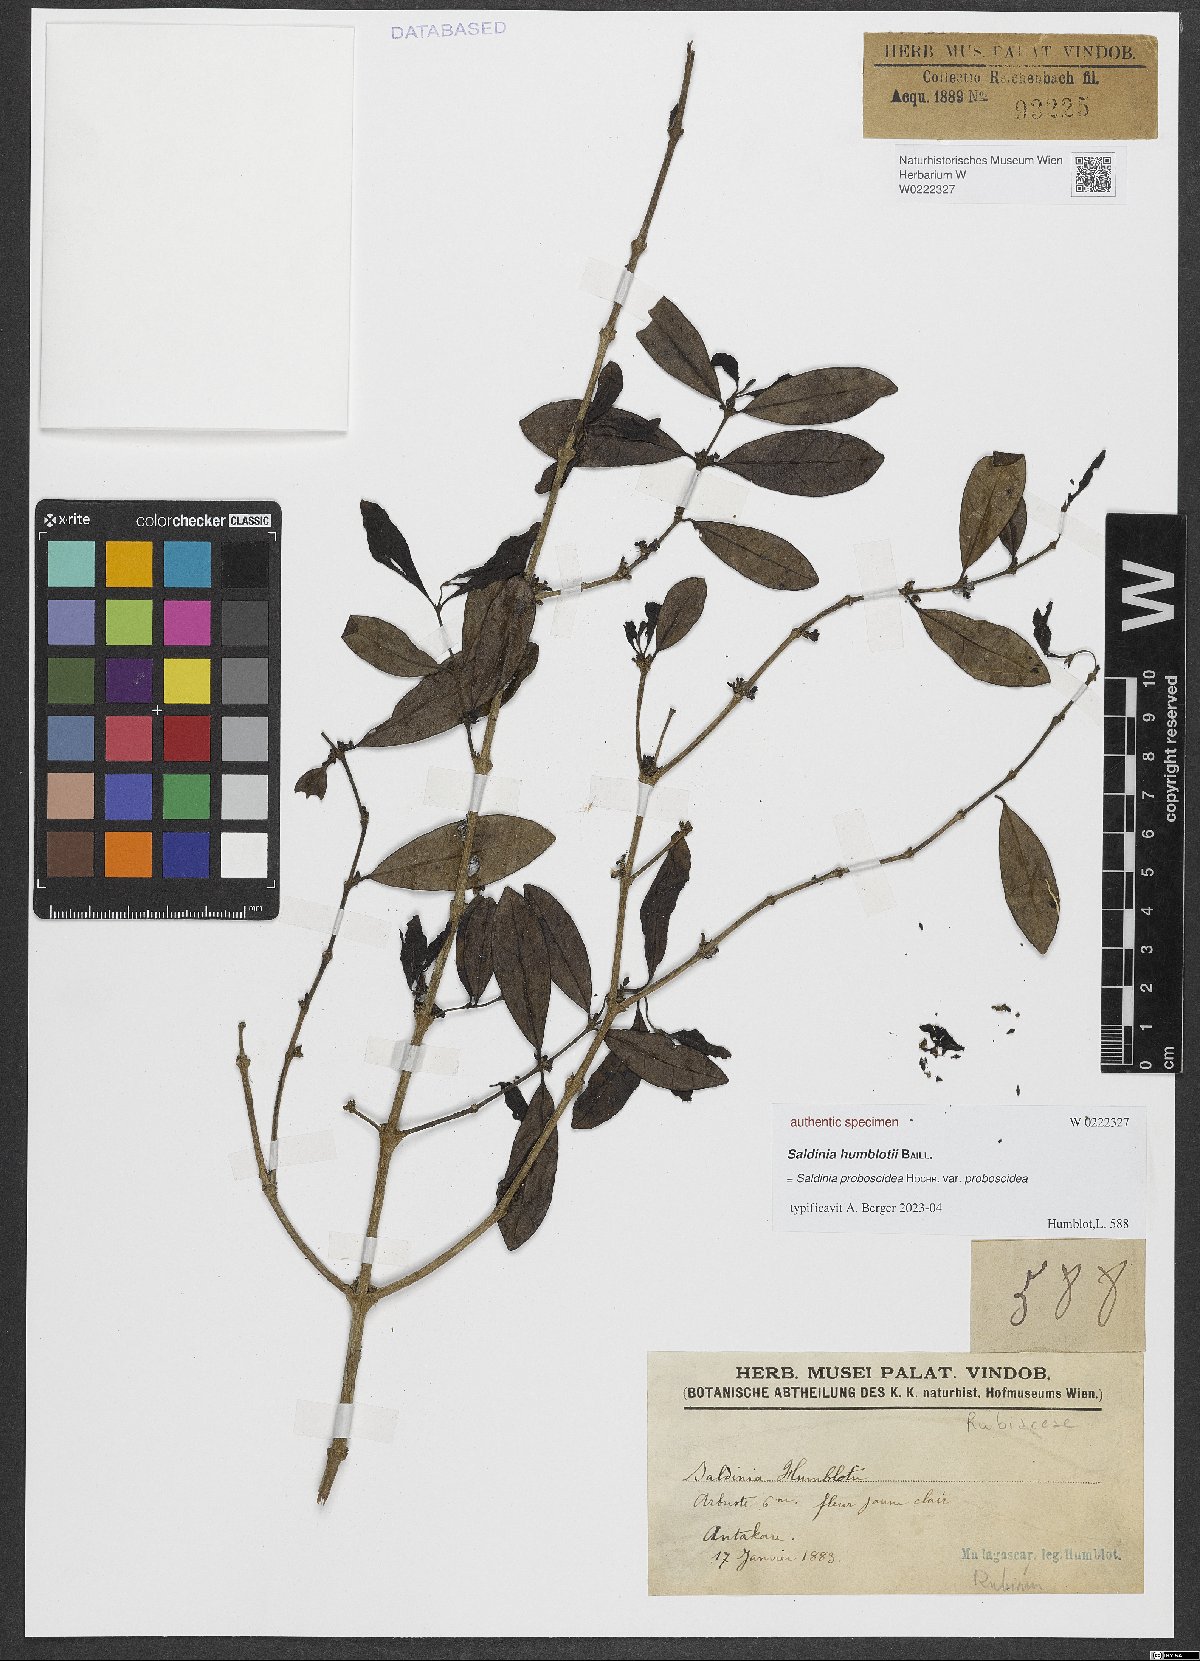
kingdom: Plantae
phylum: Tracheophyta
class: Magnoliopsida
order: Gentianales
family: Rubiaceae
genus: Saldinia
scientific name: Saldinia
